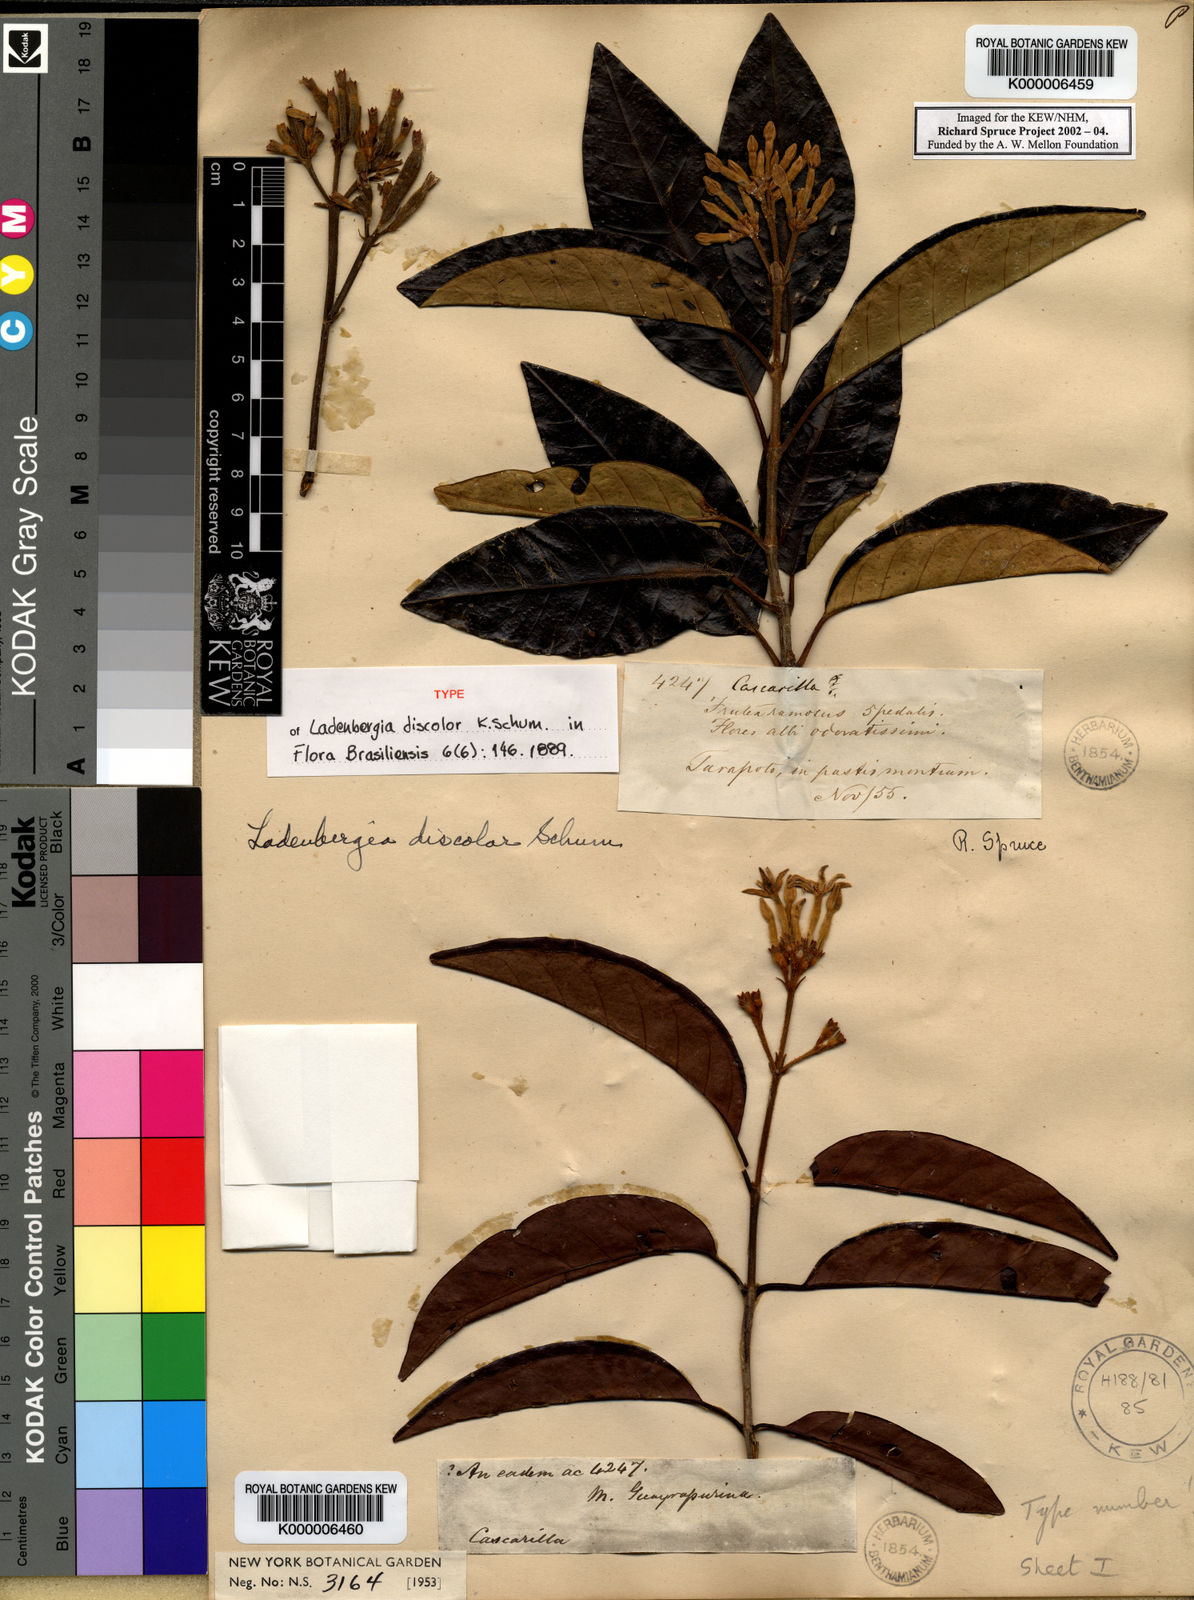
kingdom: Plantae
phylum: Tracheophyta
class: Magnoliopsida
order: Gentianales
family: Rubiaceae
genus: Ladenbergia
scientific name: Ladenbergia discolor
